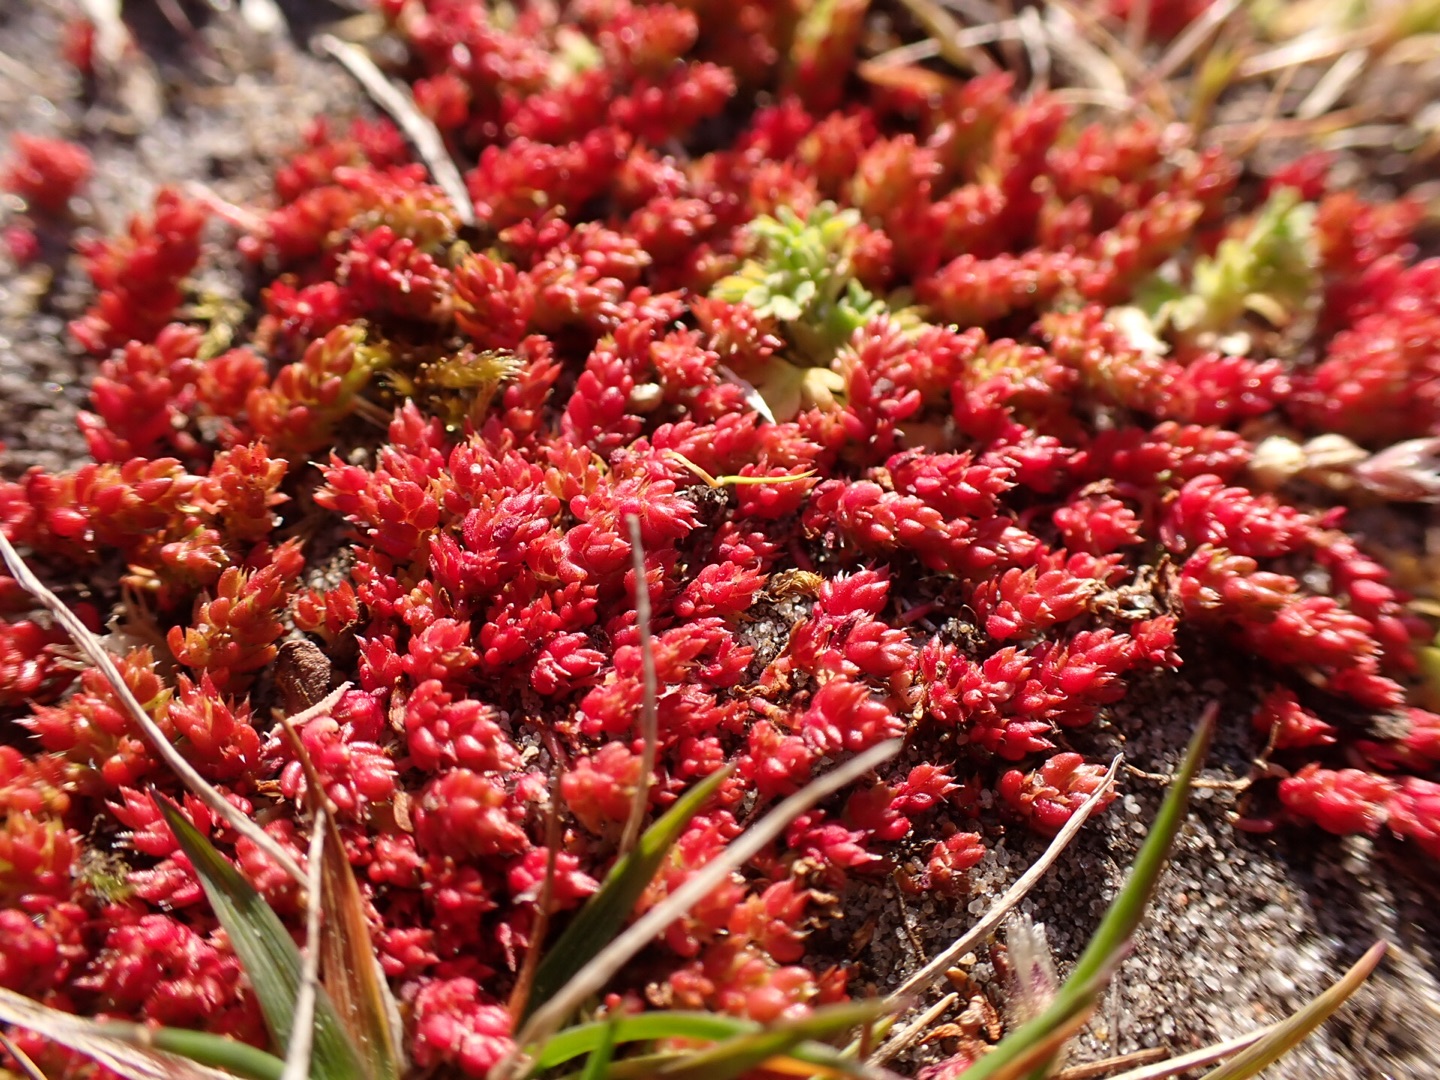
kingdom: Plantae
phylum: Tracheophyta
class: Magnoliopsida
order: Saxifragales
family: Crassulaceae
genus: Crassula
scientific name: Crassula tillaea
